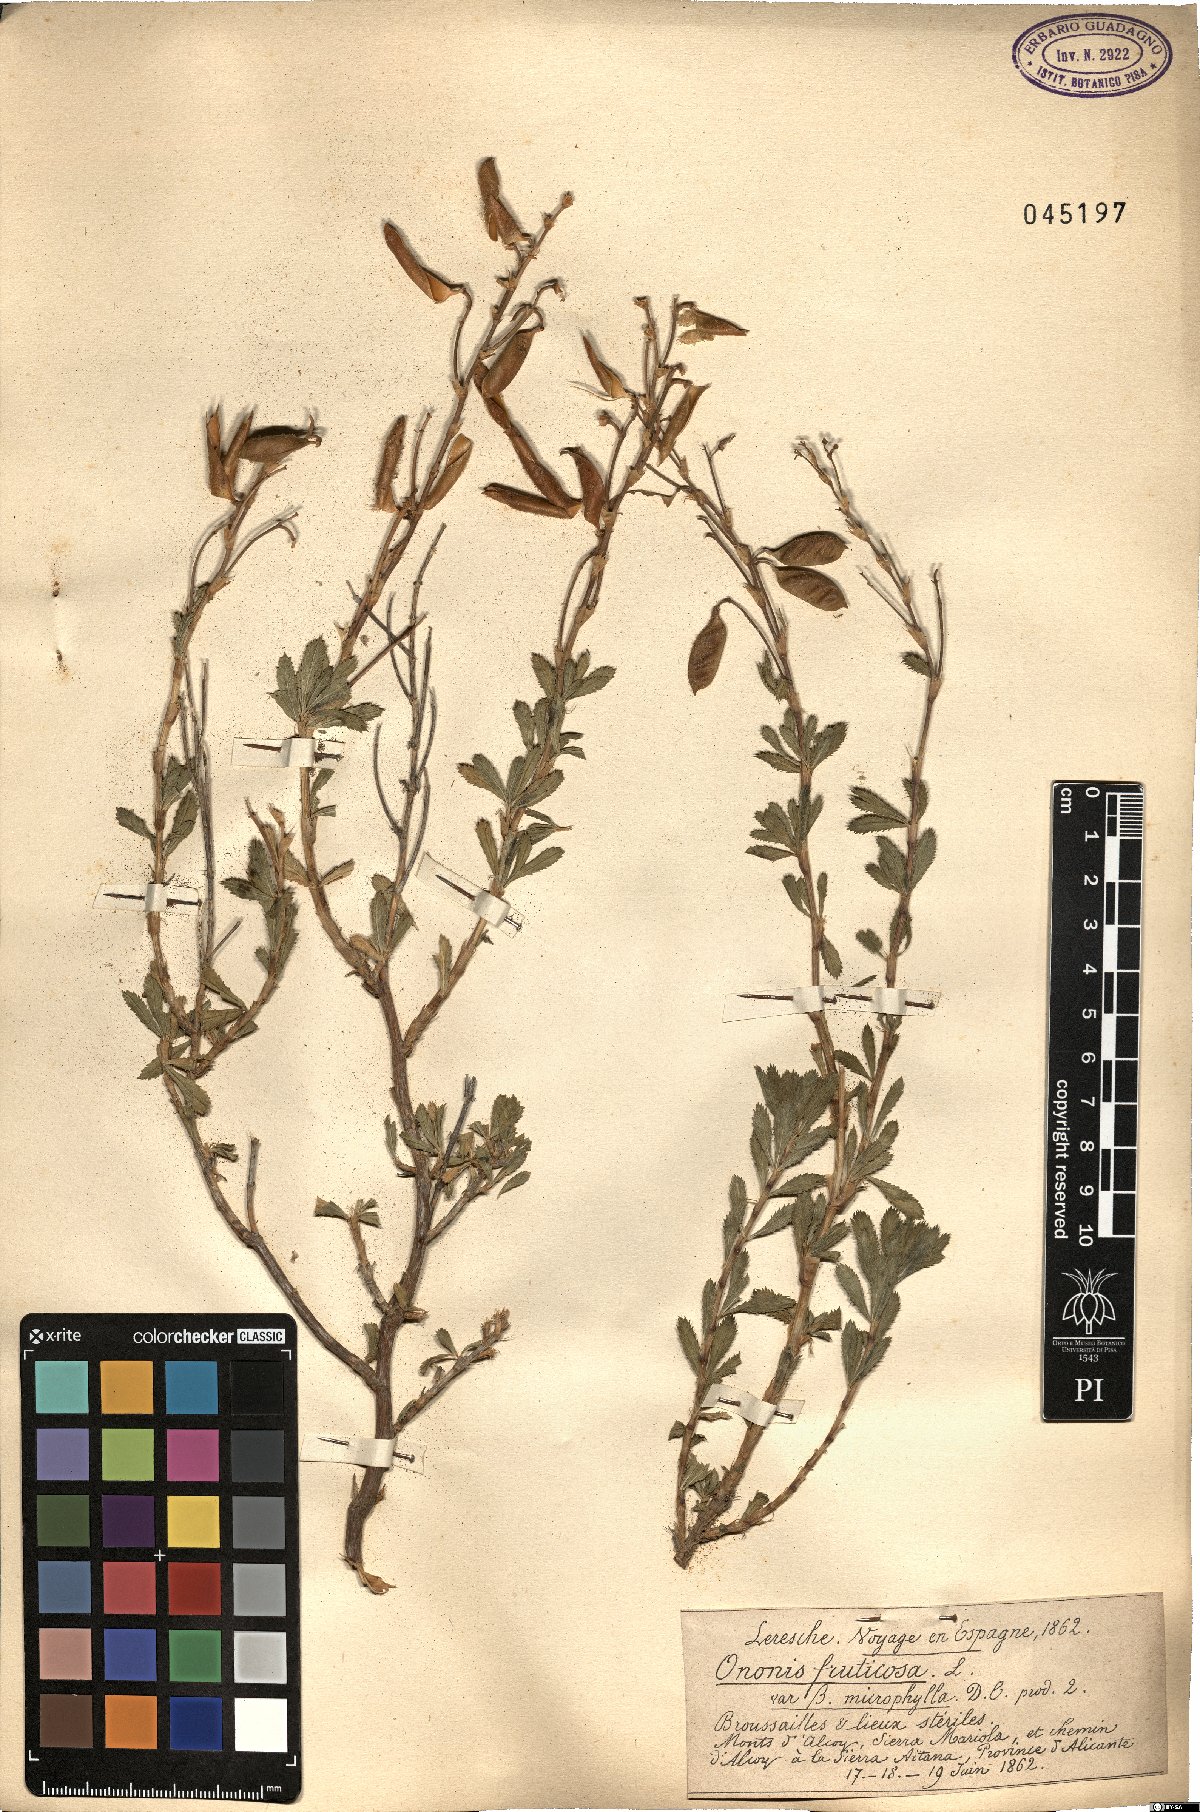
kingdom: Plantae
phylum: Tracheophyta
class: Magnoliopsida
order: Fabales
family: Fabaceae
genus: Ononis
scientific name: Ononis fruticosa
